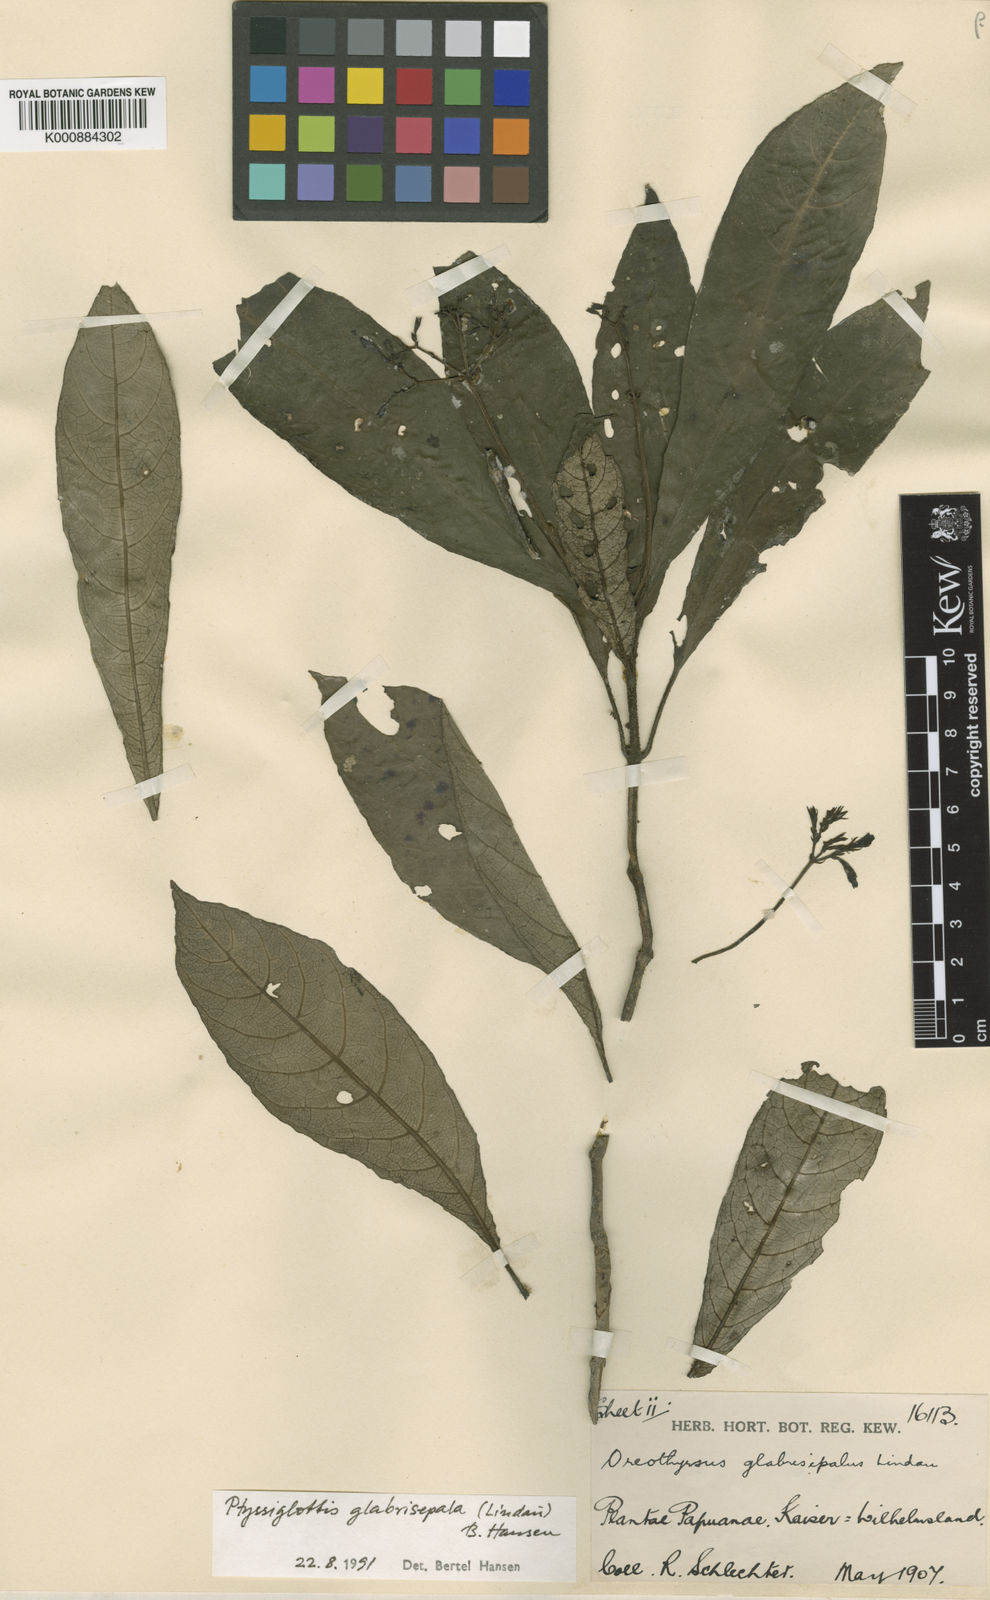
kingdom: Plantae
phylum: Tracheophyta
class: Magnoliopsida
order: Lamiales
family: Acanthaceae
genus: Ptyssiglottis
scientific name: Ptyssiglottis glabrisepala
